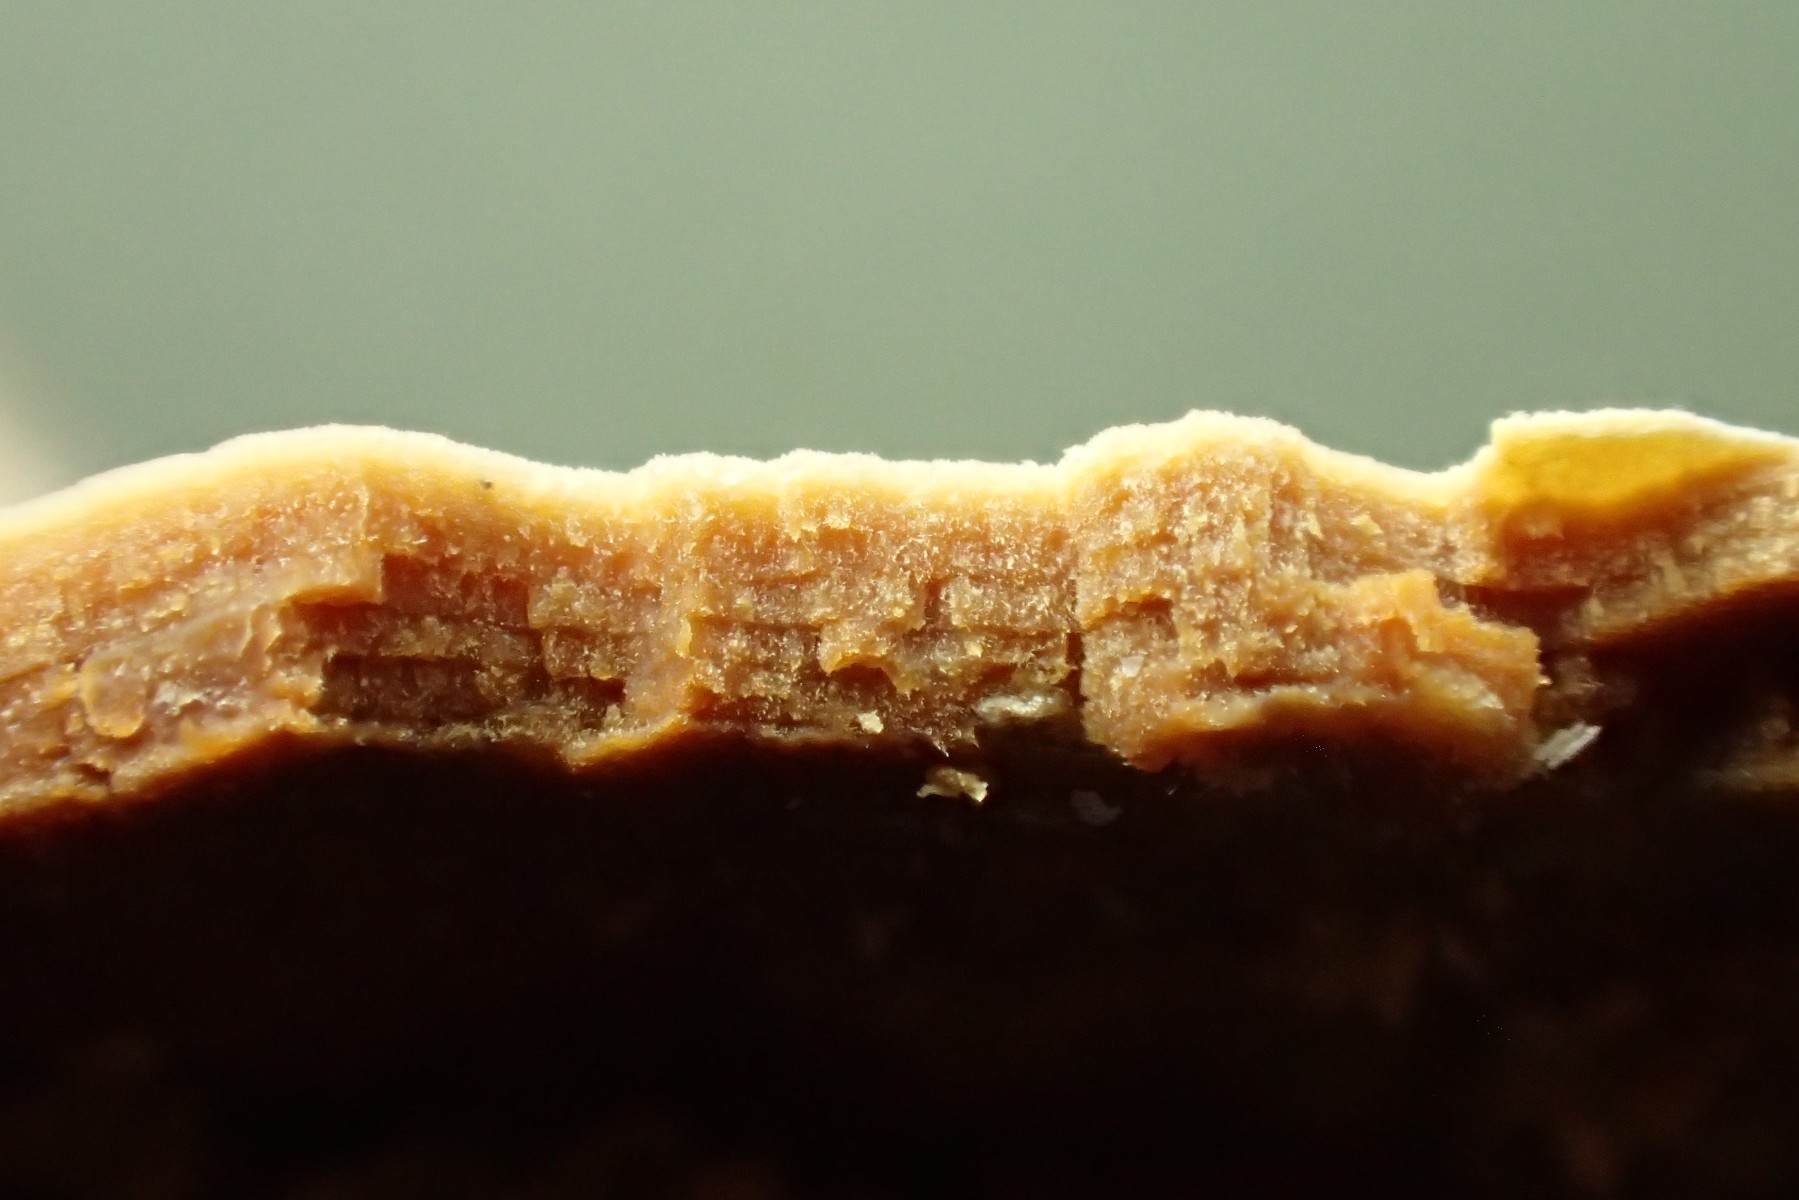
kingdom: Fungi
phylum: Basidiomycota
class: Agaricomycetes
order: Russulales
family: Peniophoraceae
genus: Scytinostroma
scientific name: Scytinostroma hemidichophyticum
